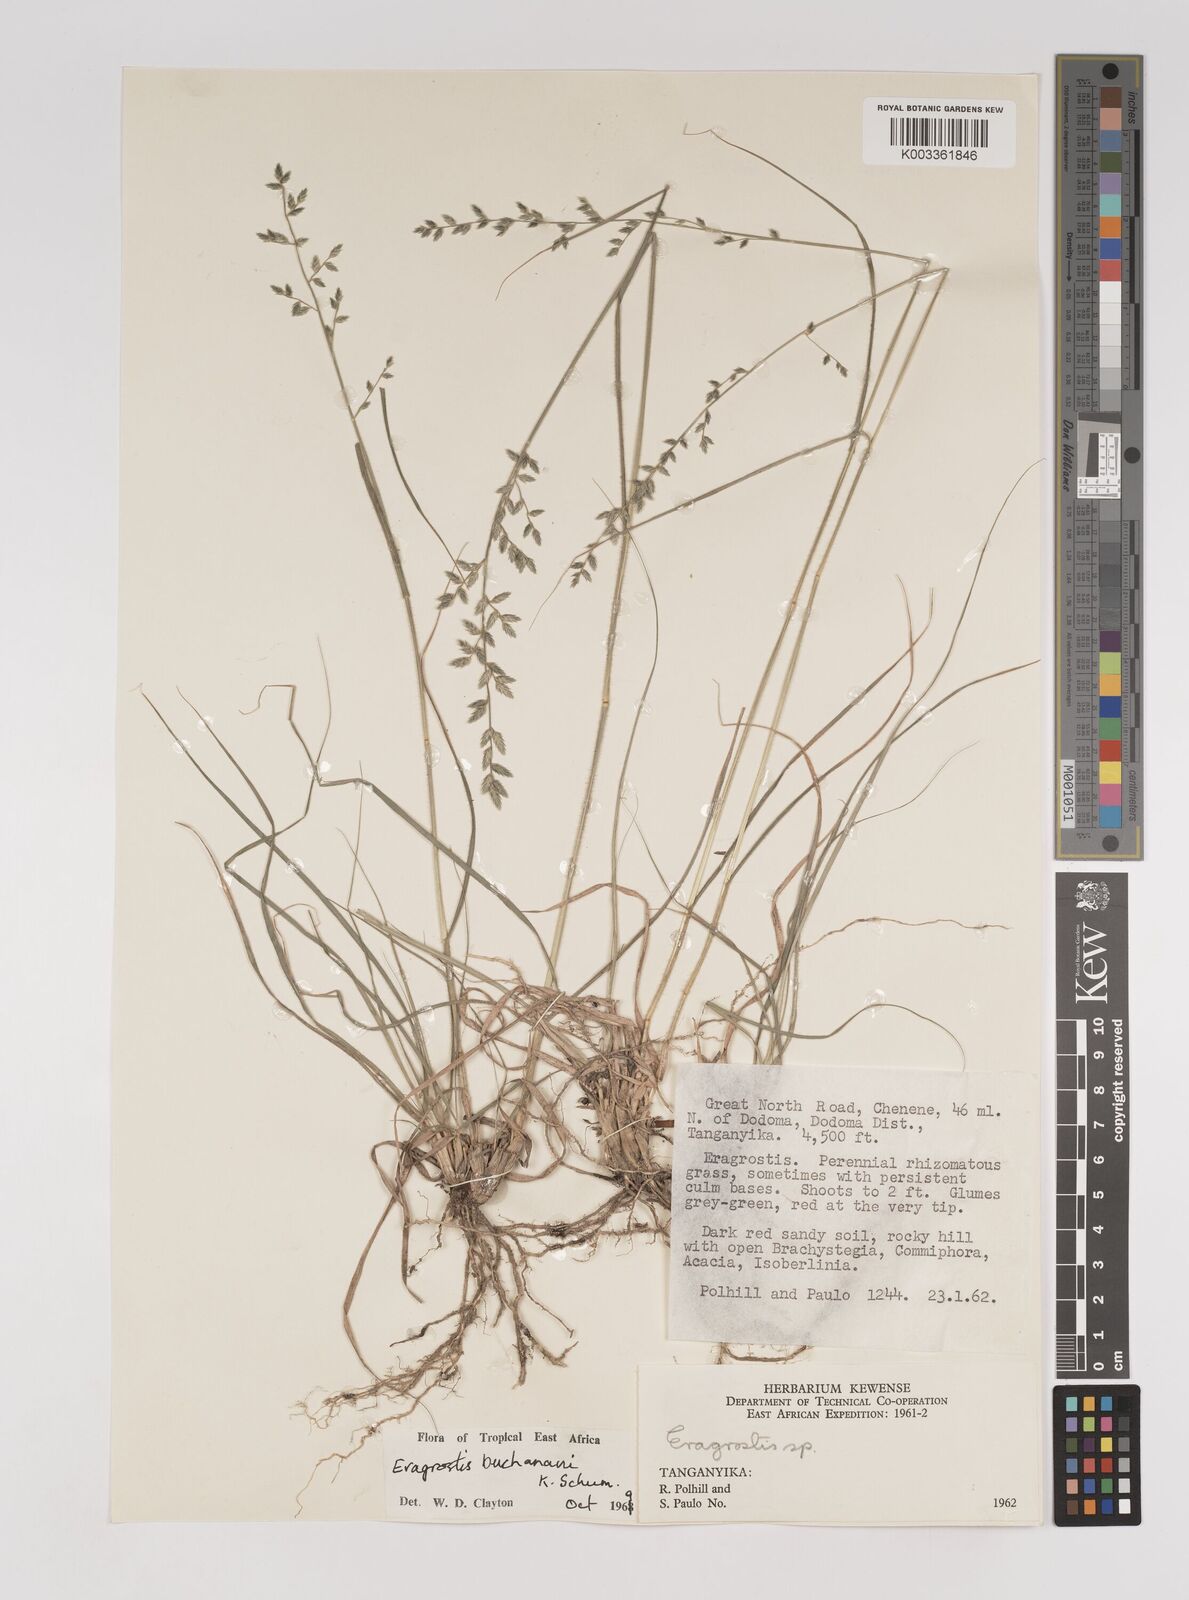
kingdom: Plantae
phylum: Tracheophyta
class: Liliopsida
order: Poales
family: Poaceae
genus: Eragrostis
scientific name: Eragrostis nindensis
